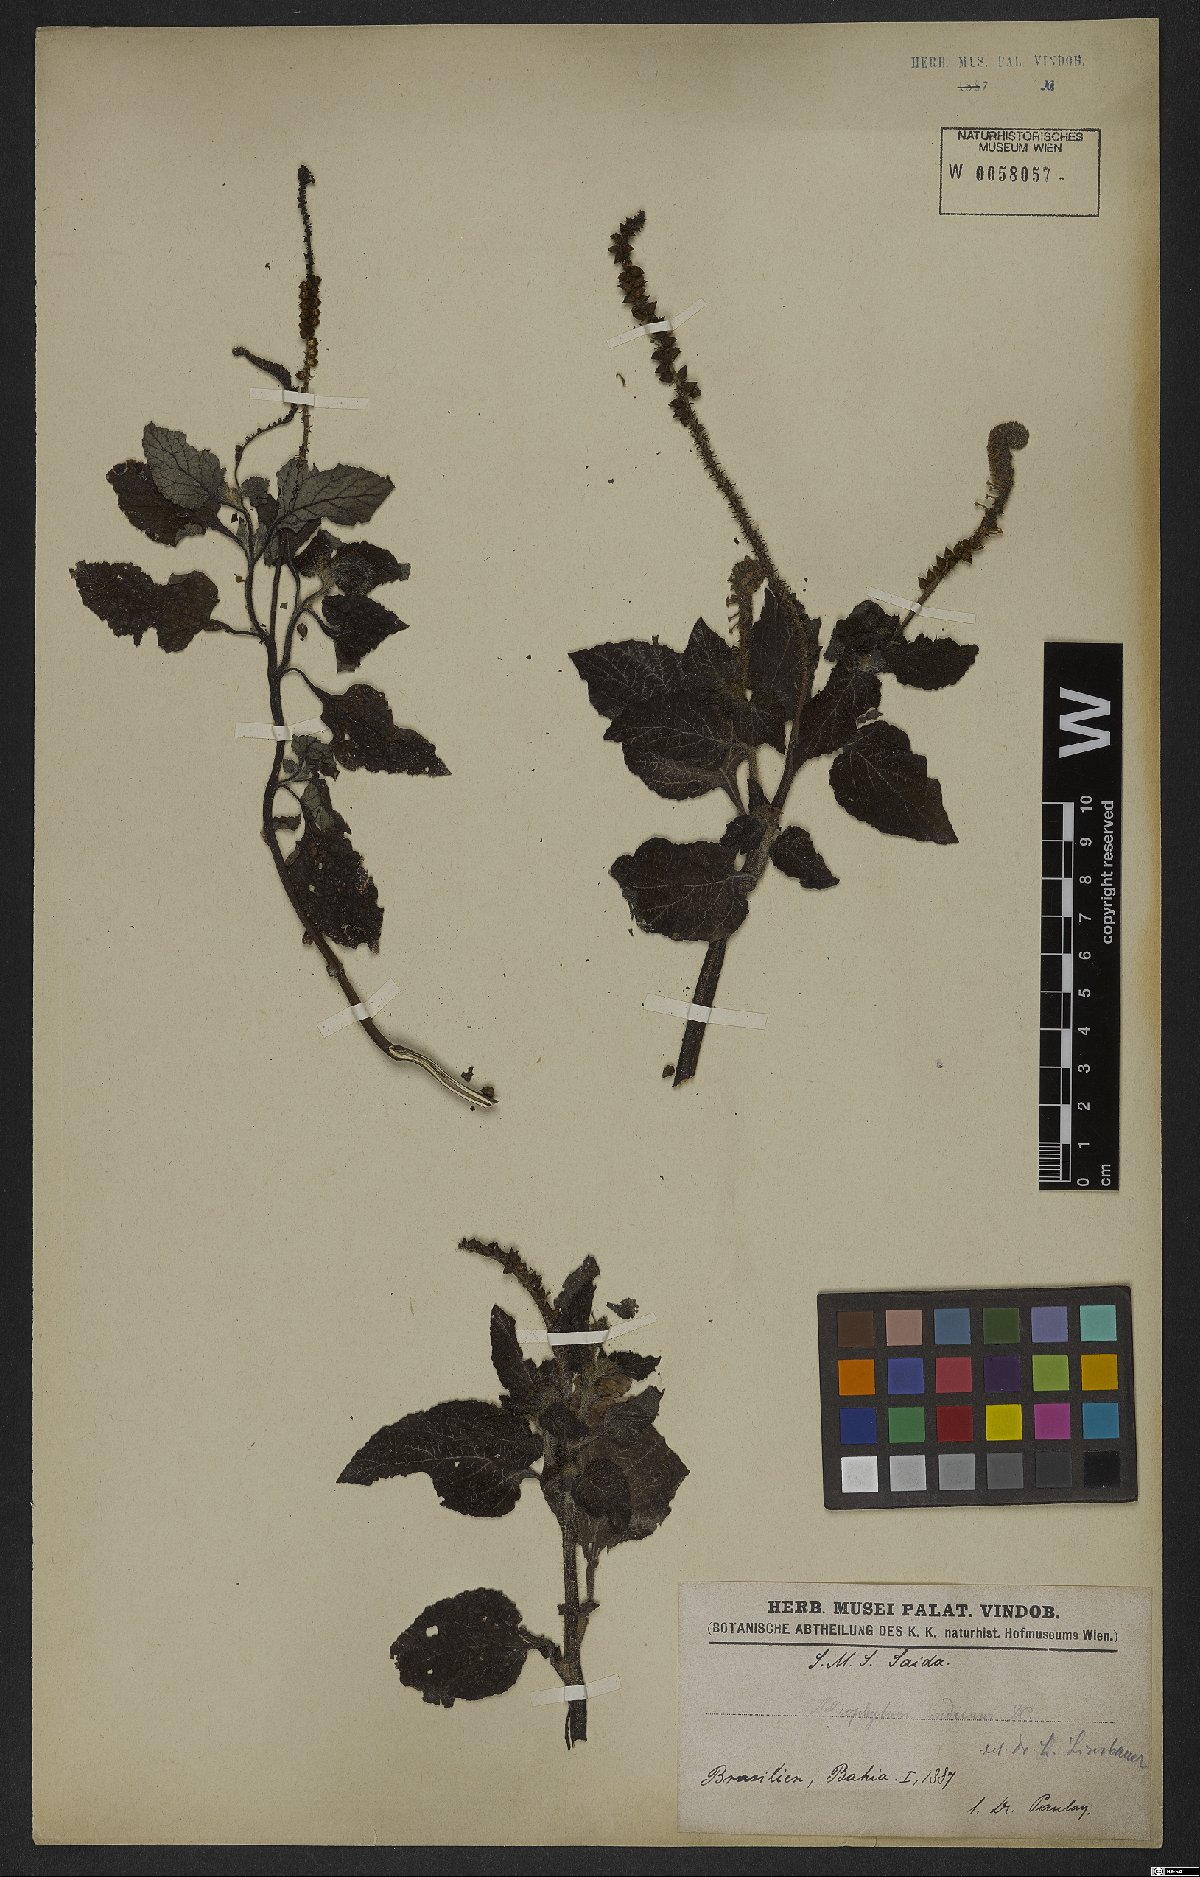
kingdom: Plantae
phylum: Tracheophyta
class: Magnoliopsida
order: Boraginales
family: Heliotropiaceae
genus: Heliotropium
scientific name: Heliotropium indicum
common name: Indian heliotrope
